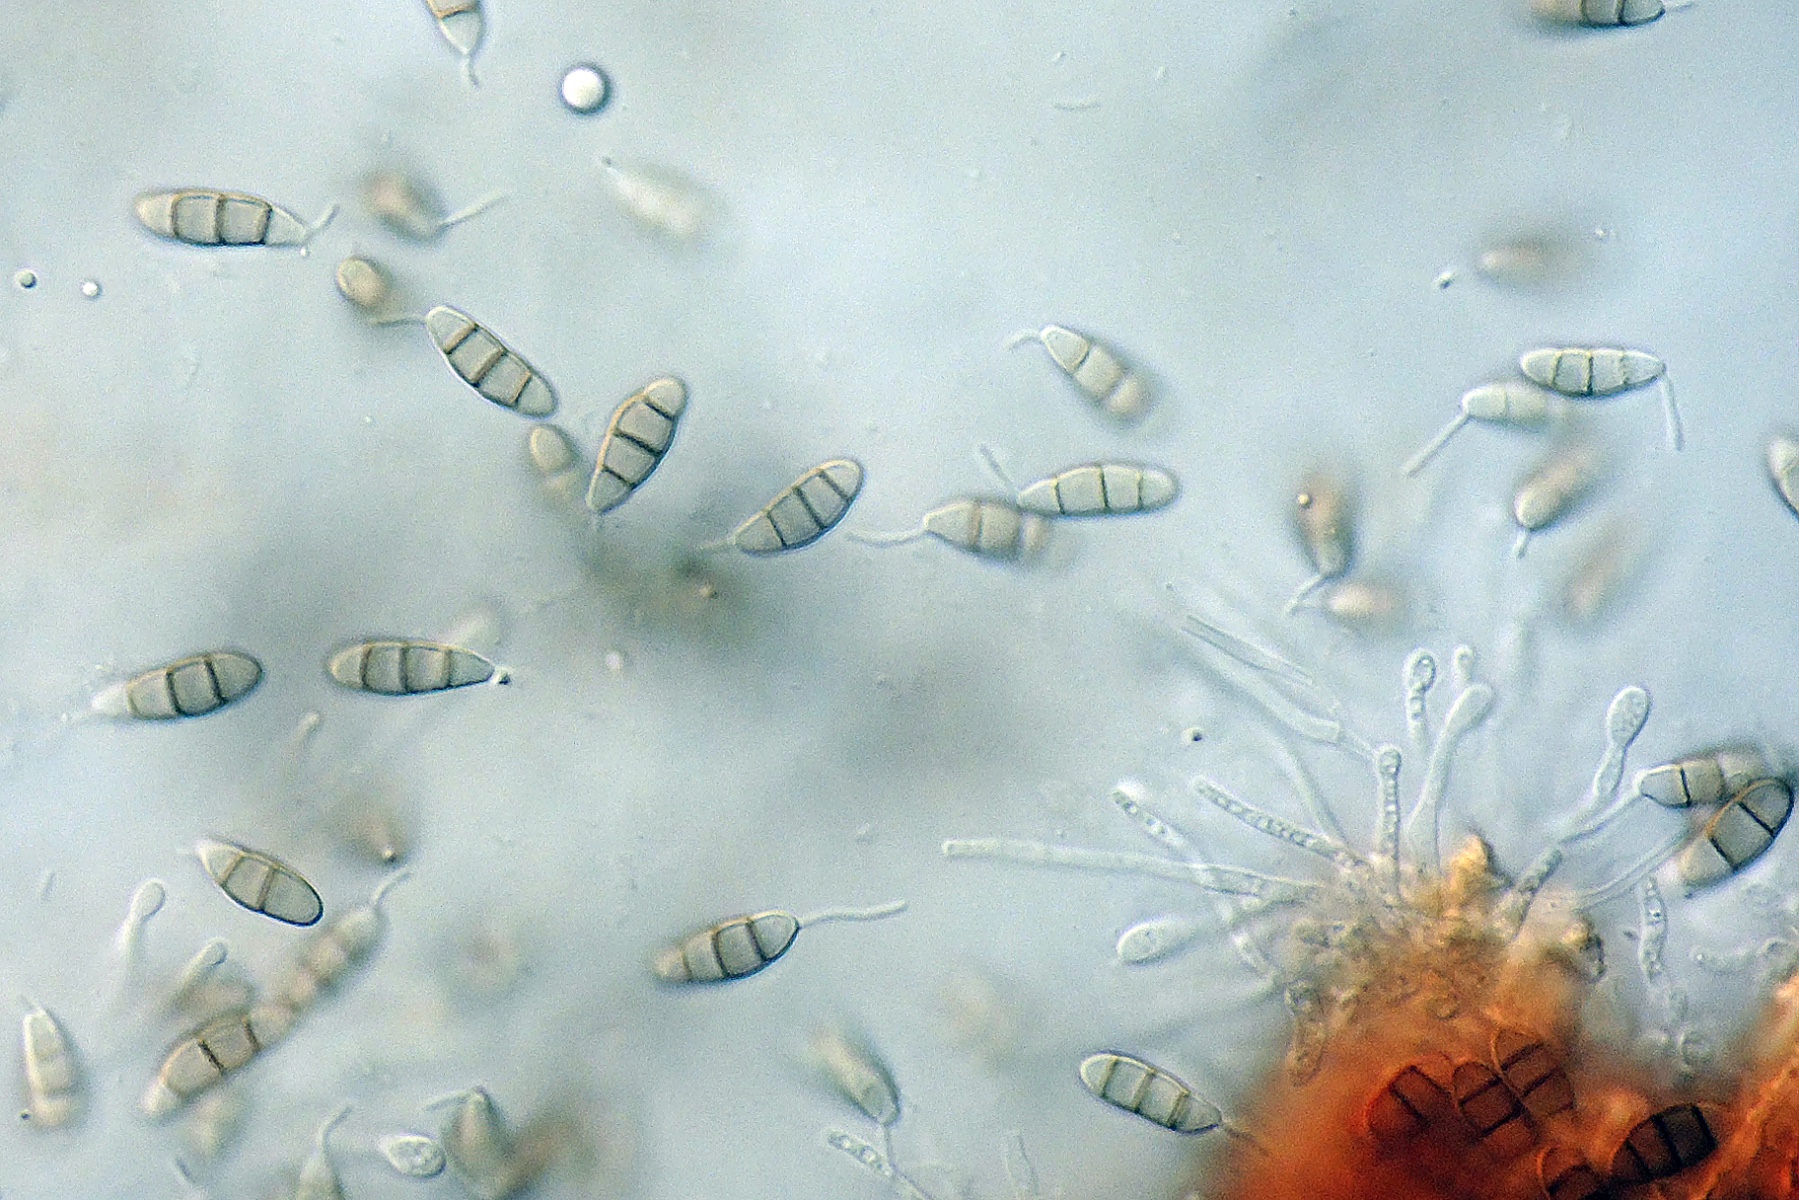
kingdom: Fungi
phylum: Ascomycota
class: Sordariomycetes
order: Amphisphaeriales
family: Sporocadaceae
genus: Seimatosporium
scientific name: Seimatosporium
